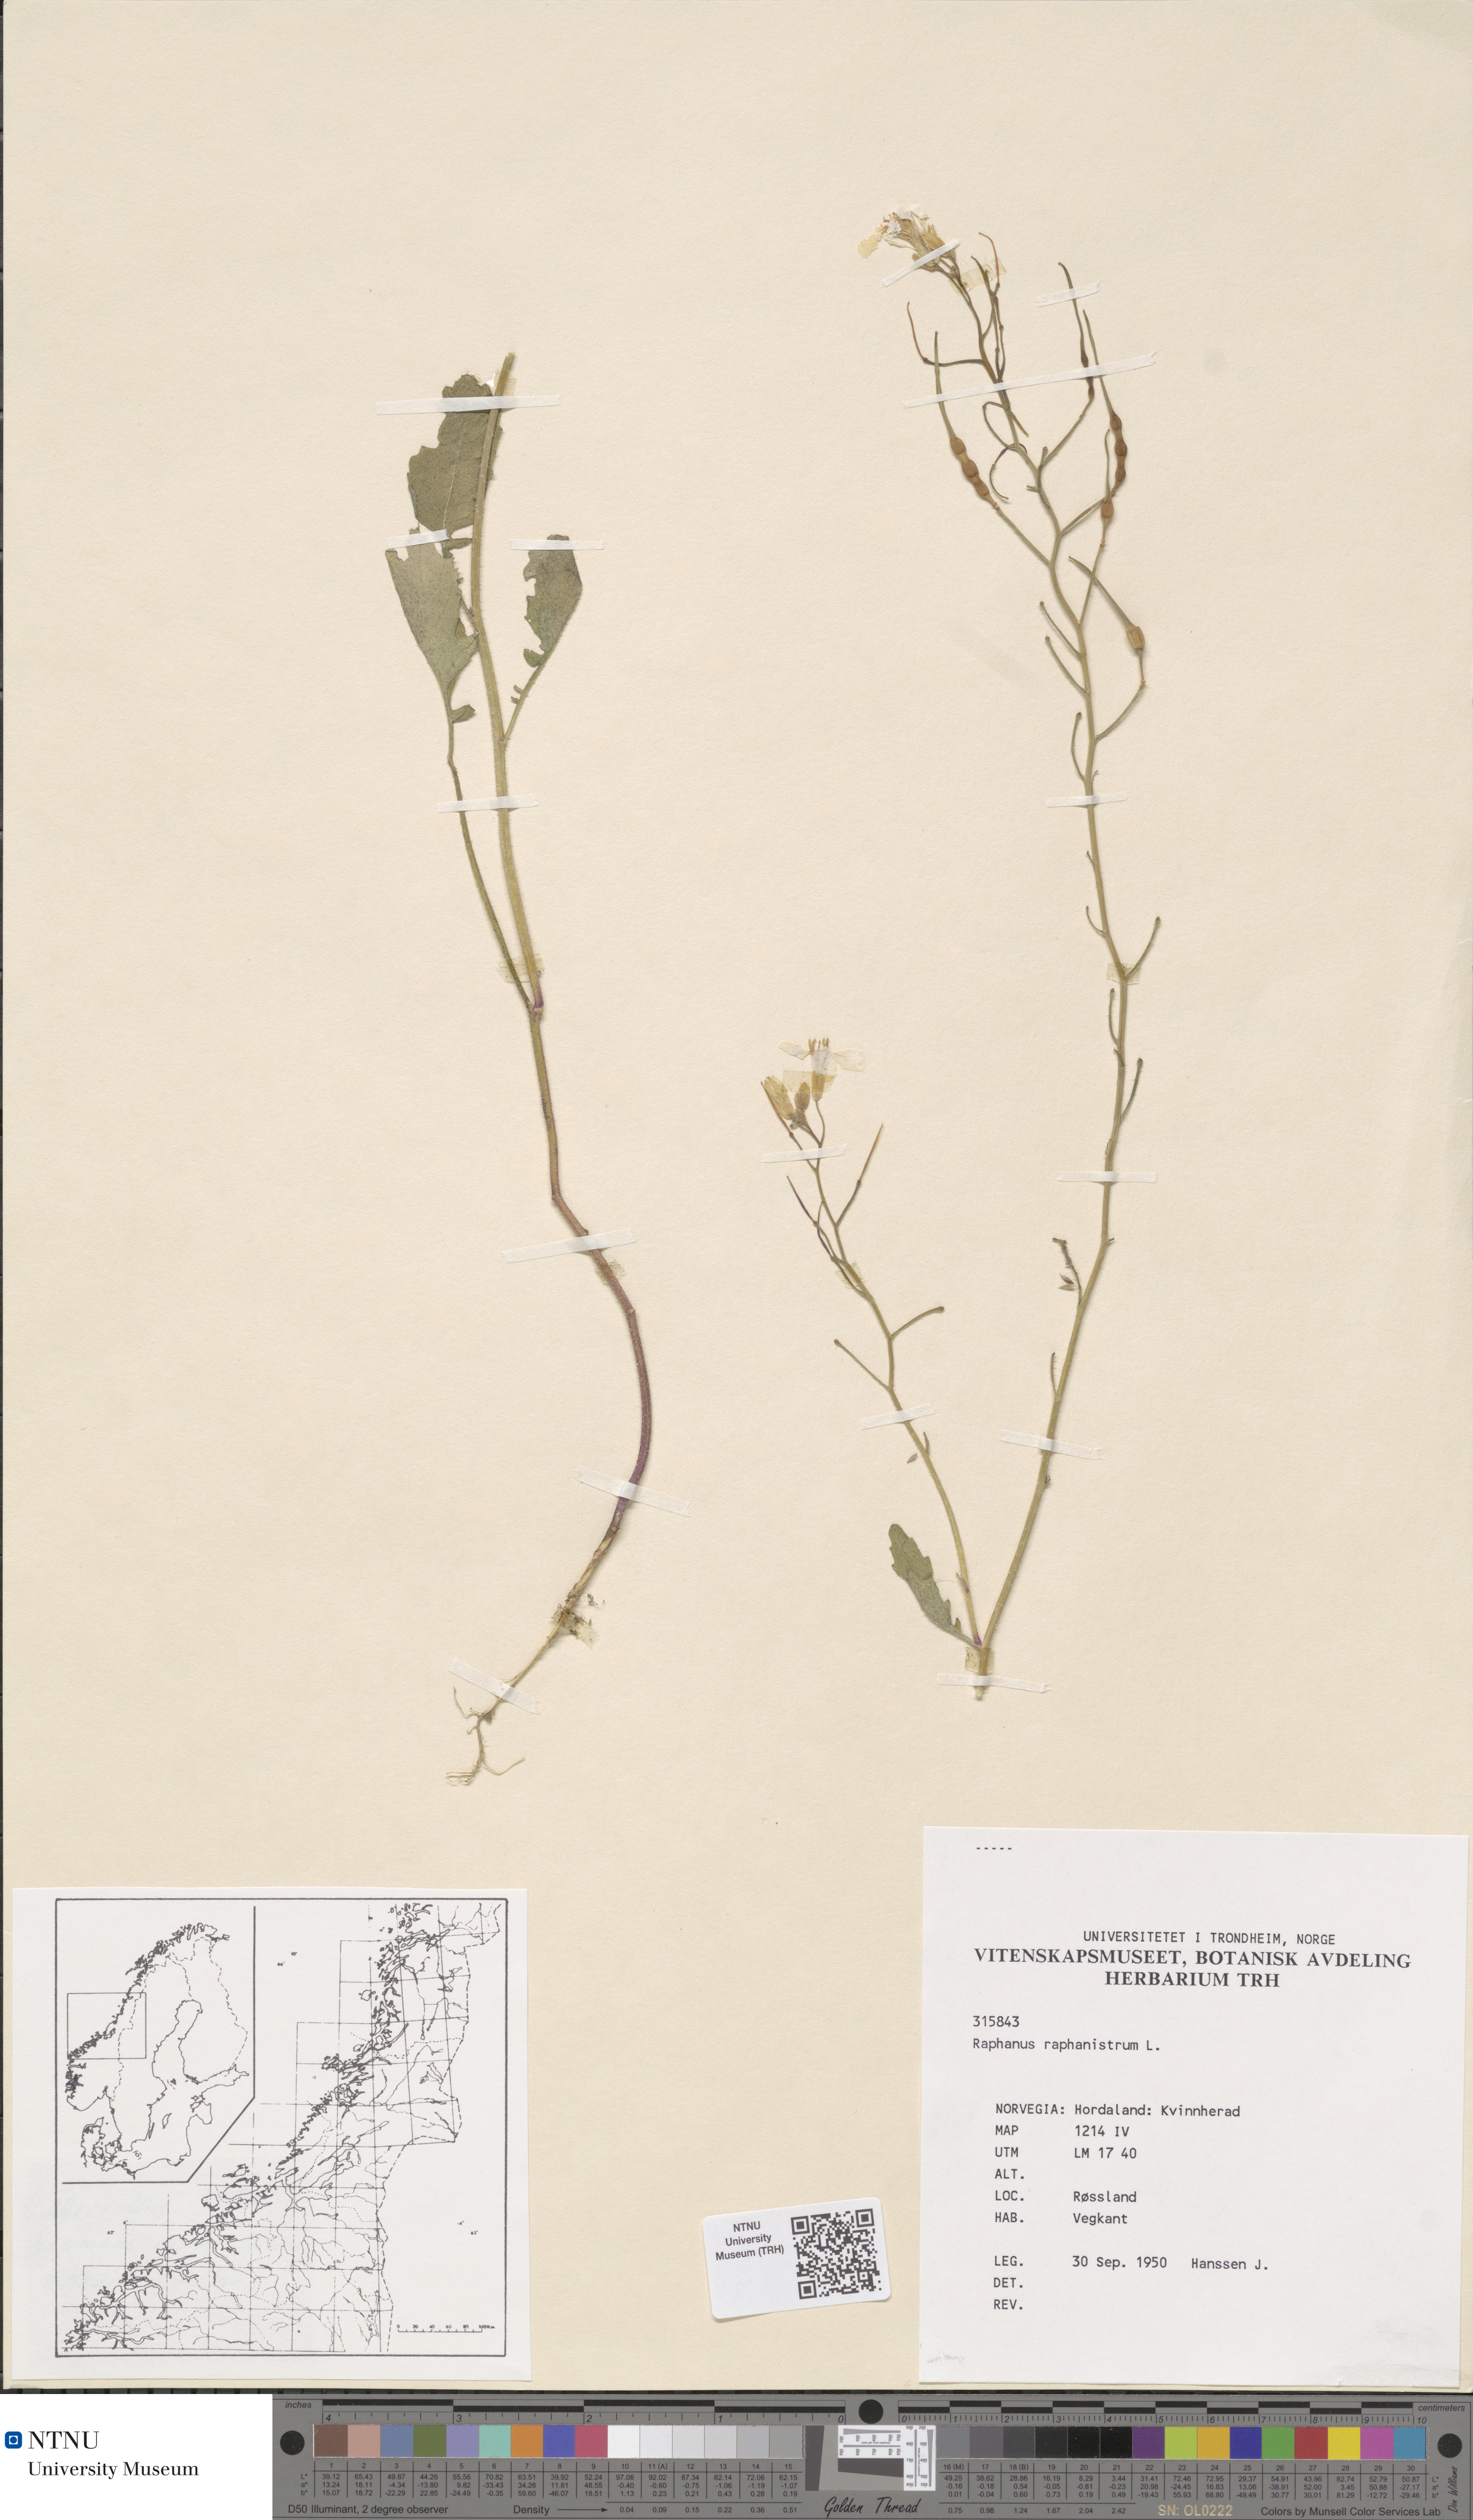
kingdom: Plantae
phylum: Tracheophyta
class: Magnoliopsida
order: Brassicales
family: Brassicaceae
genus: Raphanus
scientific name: Raphanus raphanistrum
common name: Wild radish
